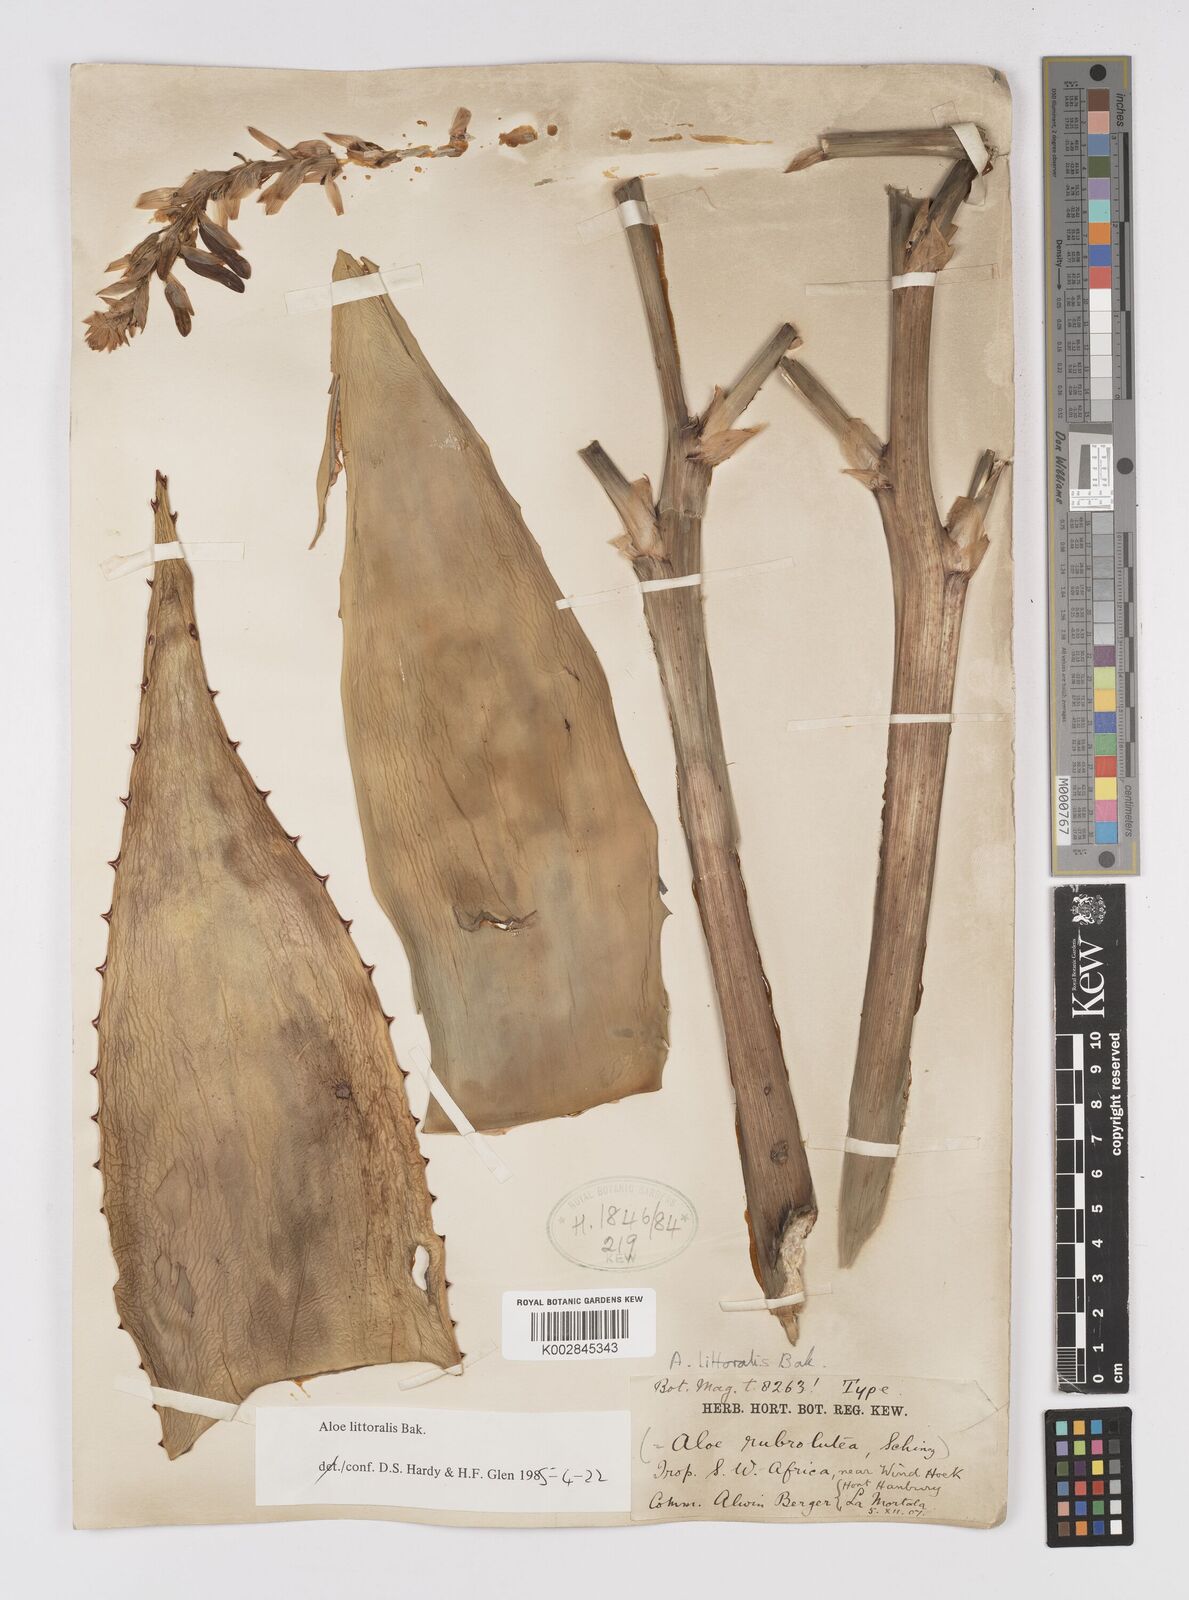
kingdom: Plantae
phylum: Tracheophyta
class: Liliopsida
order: Asparagales
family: Asphodelaceae
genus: Aloe
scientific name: Aloe littoralis
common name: Luanda tree aloe
